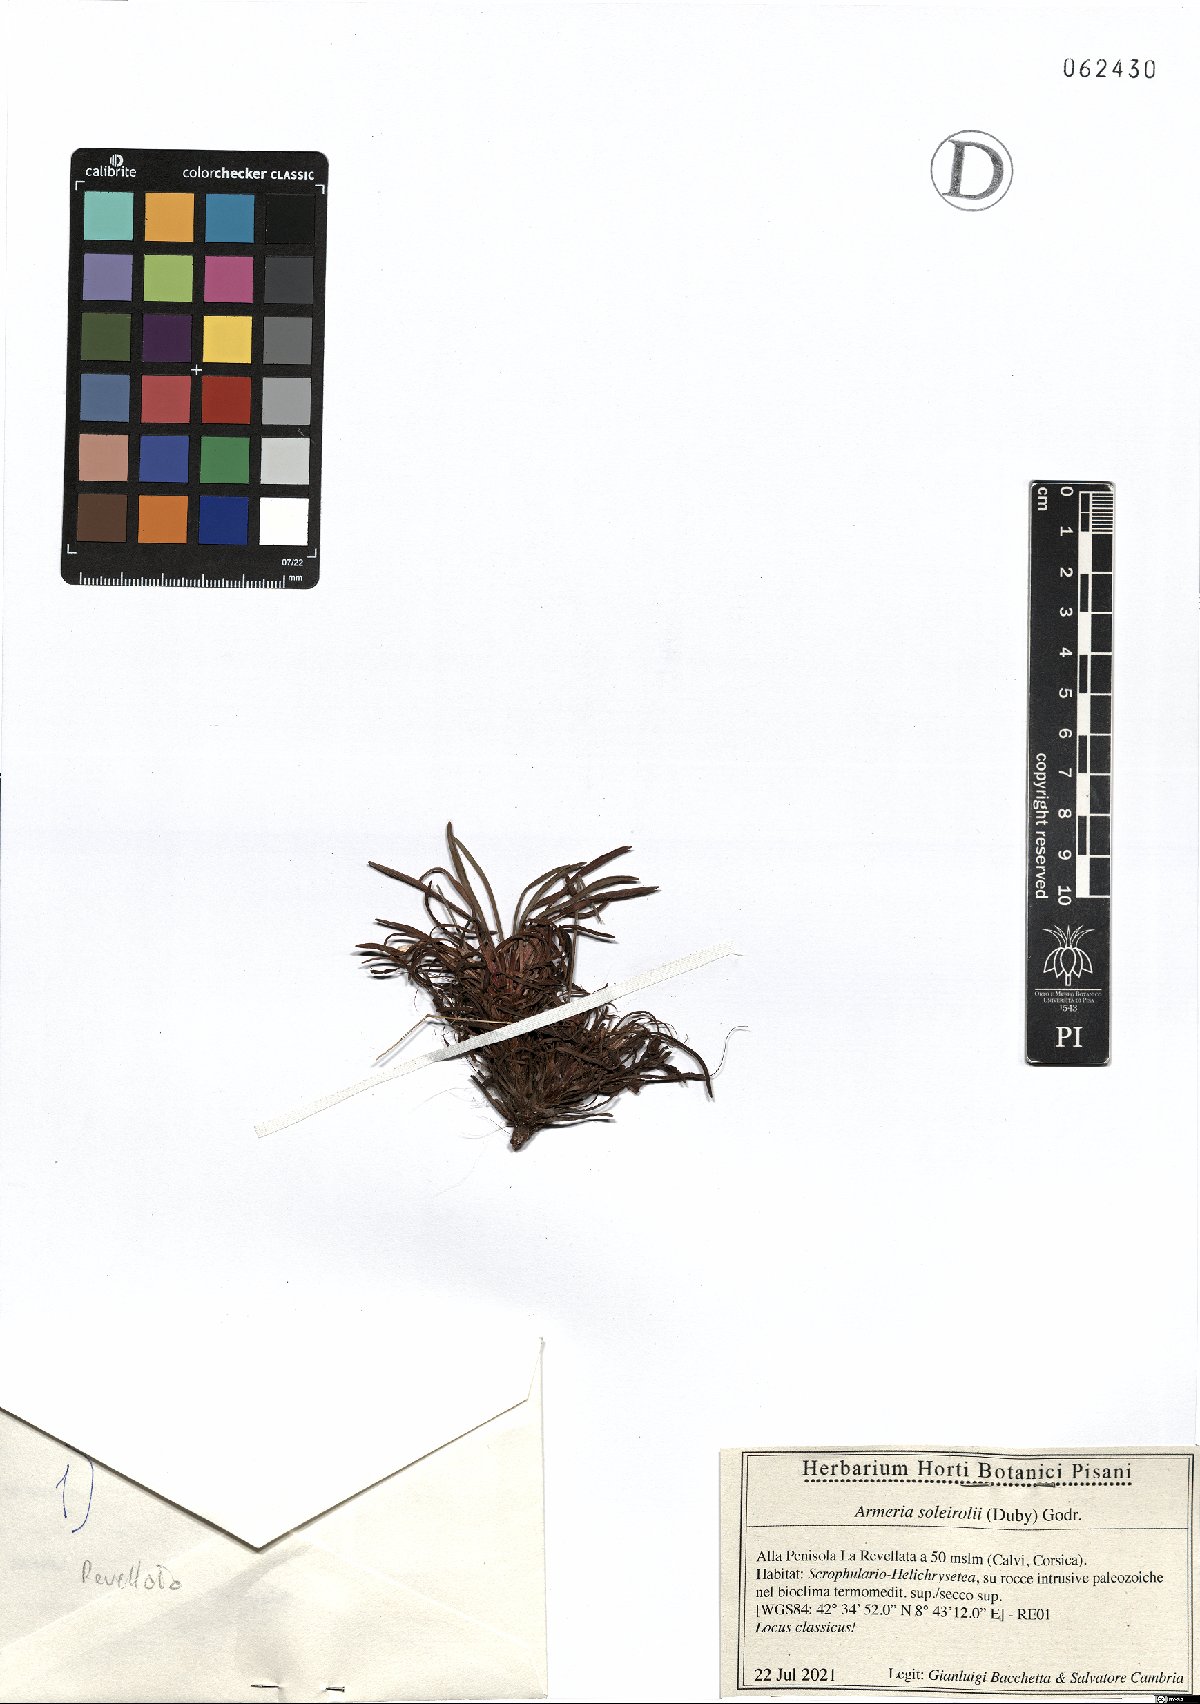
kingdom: Plantae
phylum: Tracheophyta
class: Magnoliopsida
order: Caryophyllales
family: Plumbaginaceae
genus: Armeria
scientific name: Armeria soleirolii
